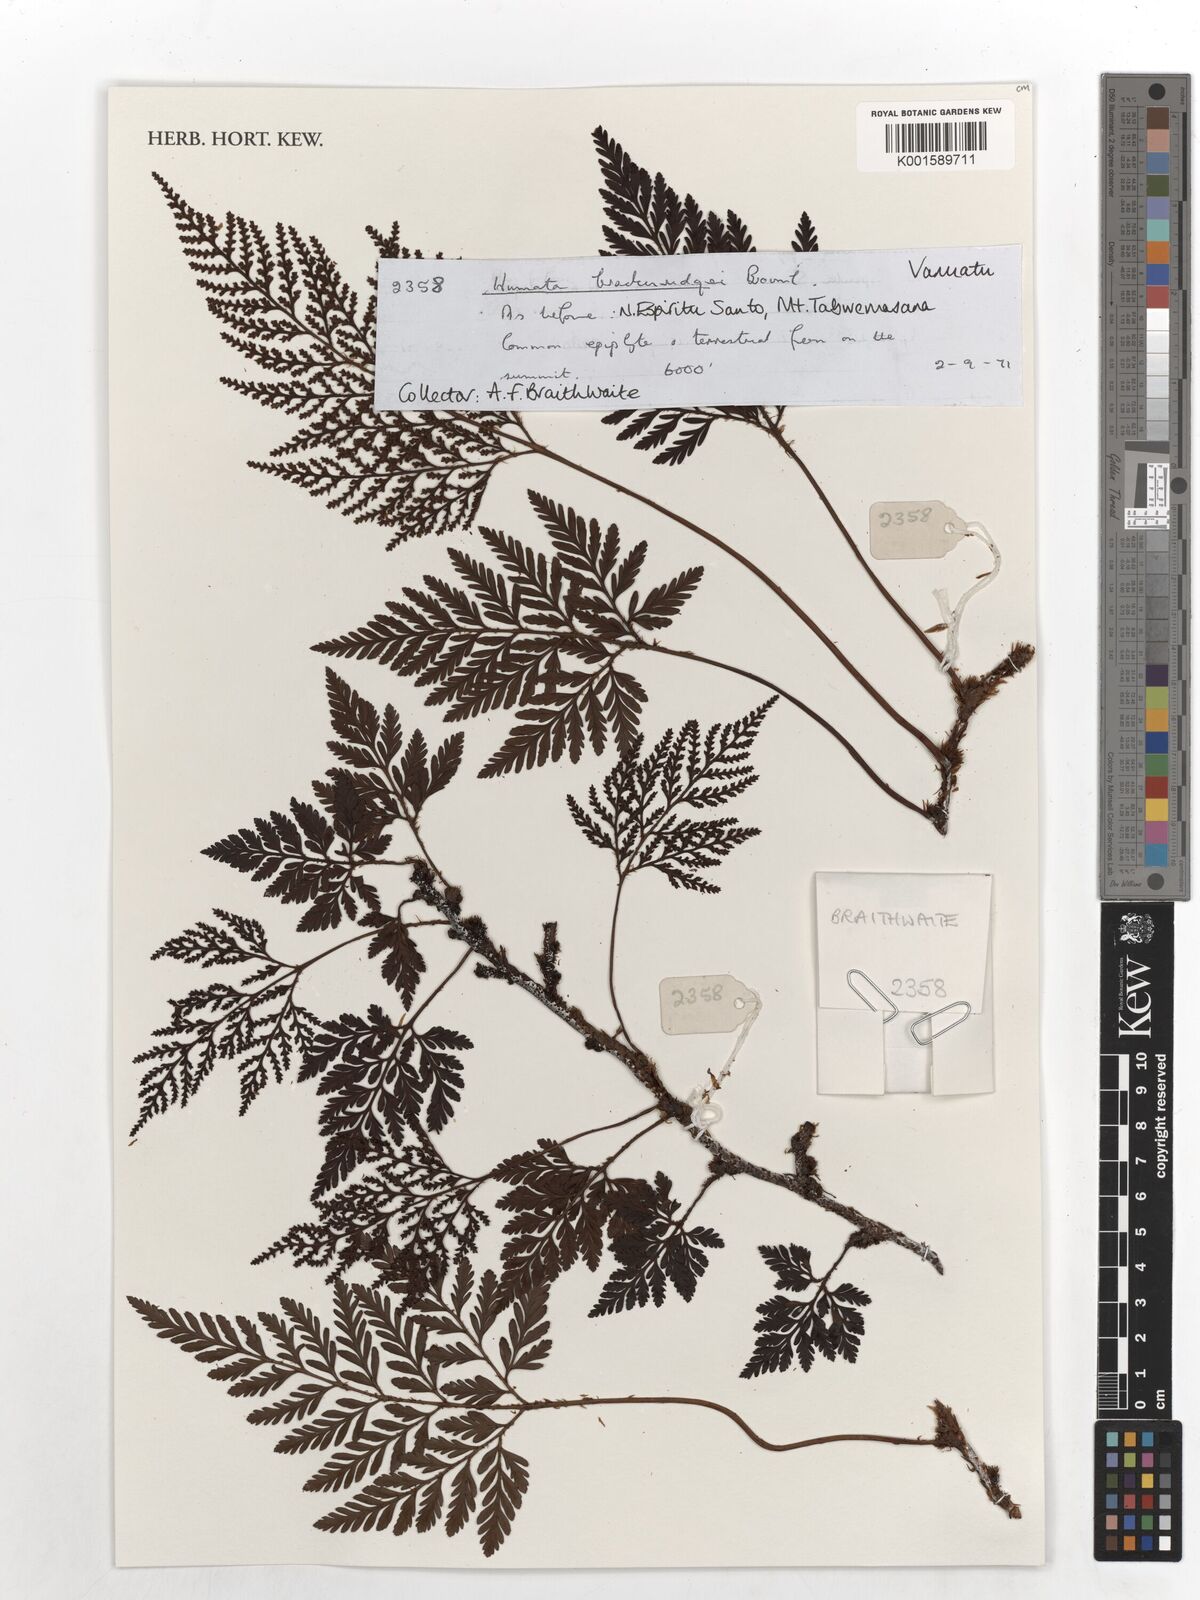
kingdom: Plantae
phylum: Tracheophyta
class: Polypodiopsida
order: Polypodiales
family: Davalliaceae
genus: Davallia
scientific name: Davallia cumingii
